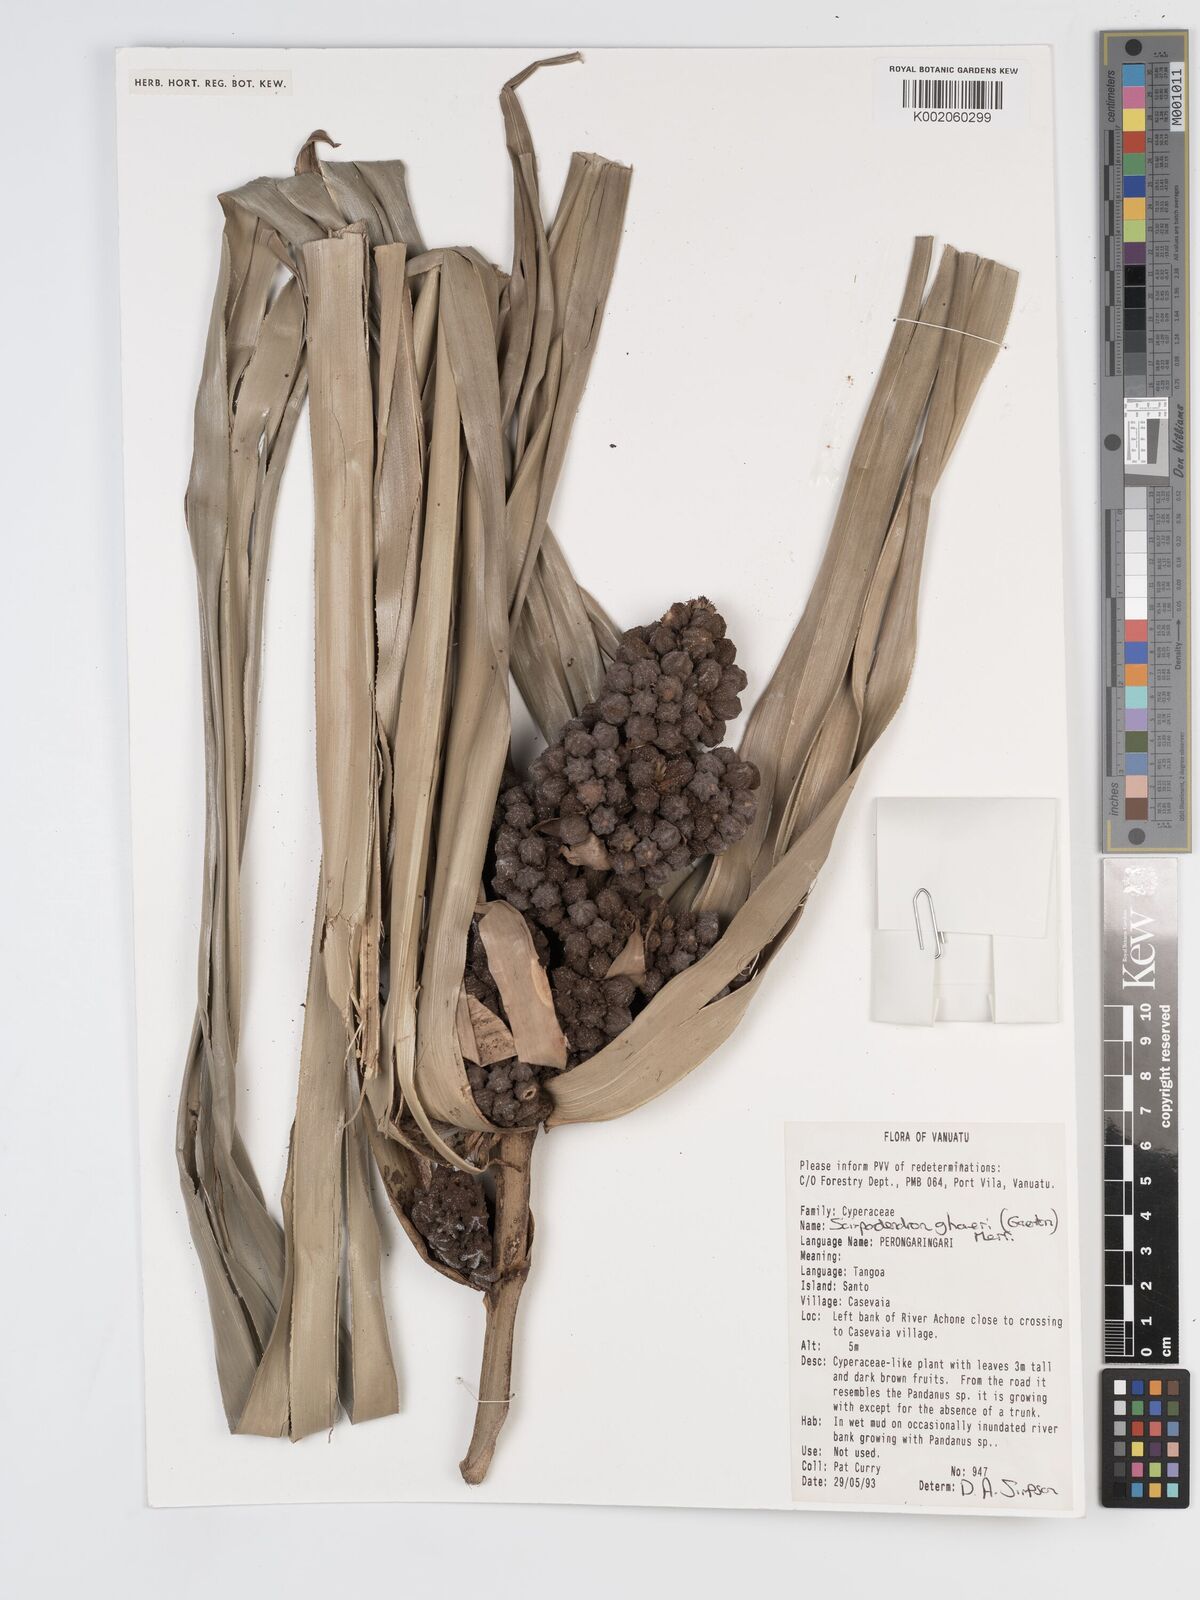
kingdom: Plantae
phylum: Tracheophyta
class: Liliopsida
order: Poales
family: Cyperaceae
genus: Scirpodendron
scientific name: Scirpodendron ghaeri
